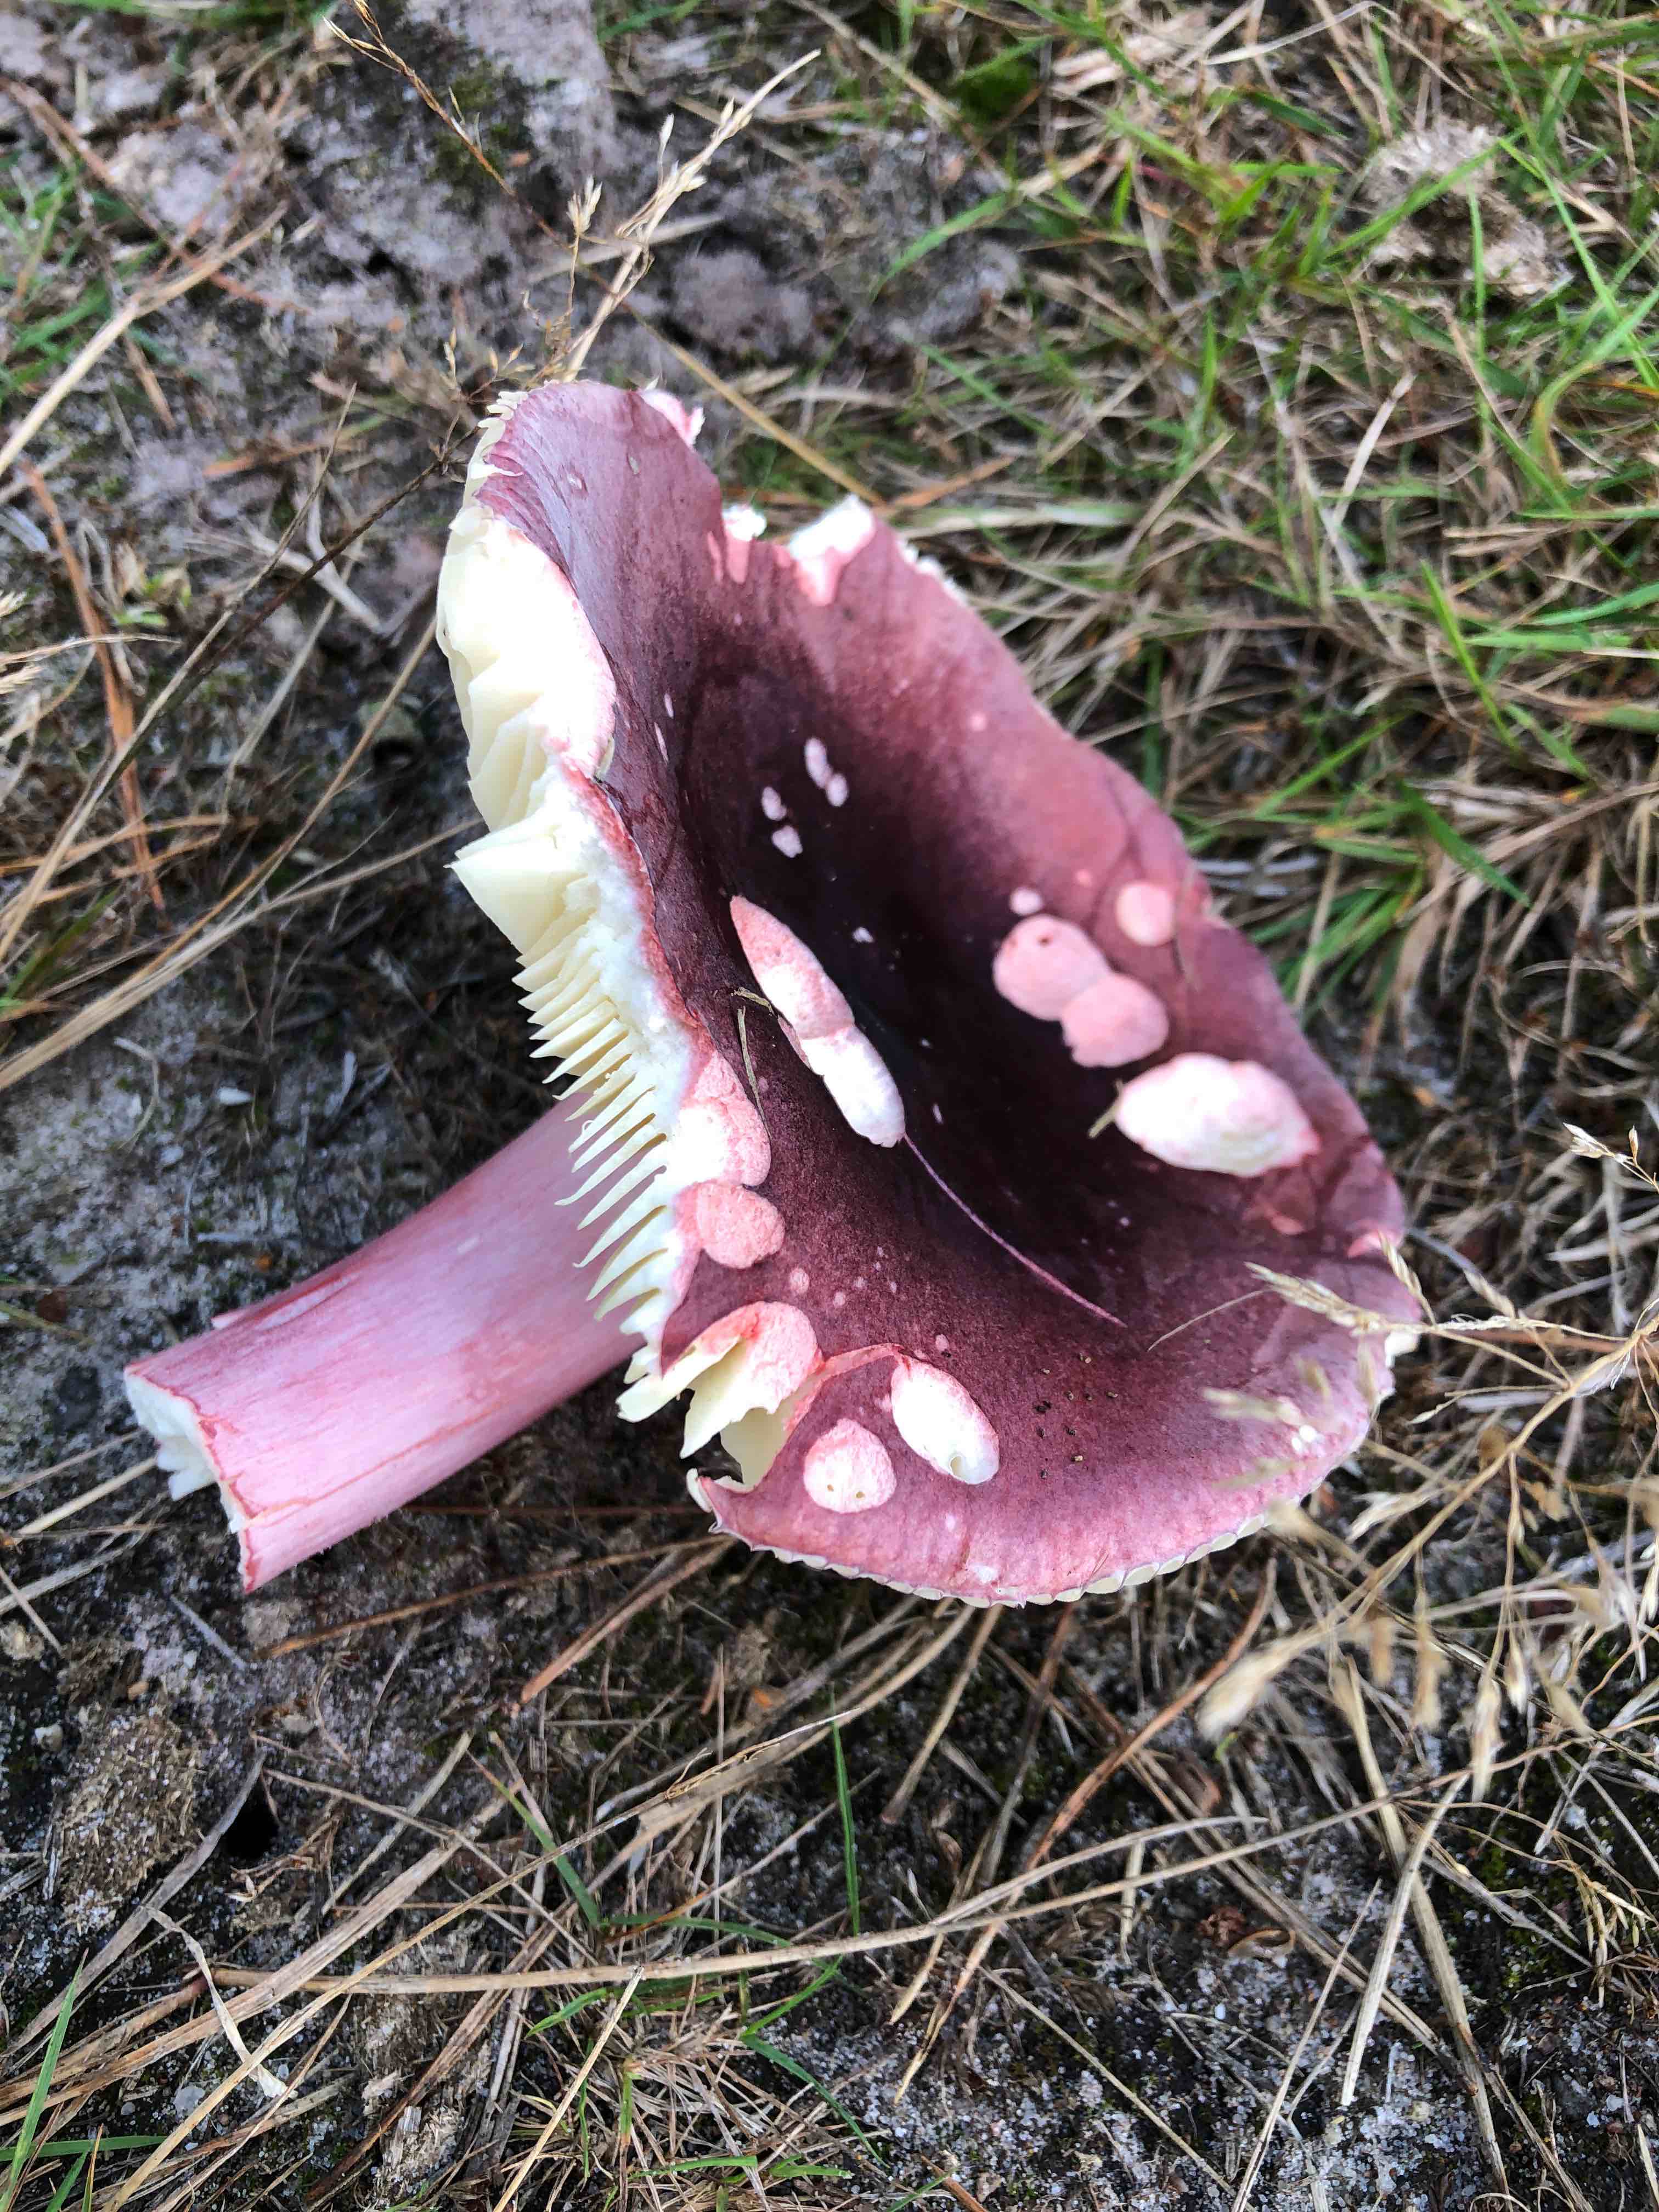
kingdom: Fungi
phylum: Basidiomycota
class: Agaricomycetes
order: Russulales
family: Russulaceae
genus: Russula
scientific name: Russula sardonia
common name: citronbladet skørhat
